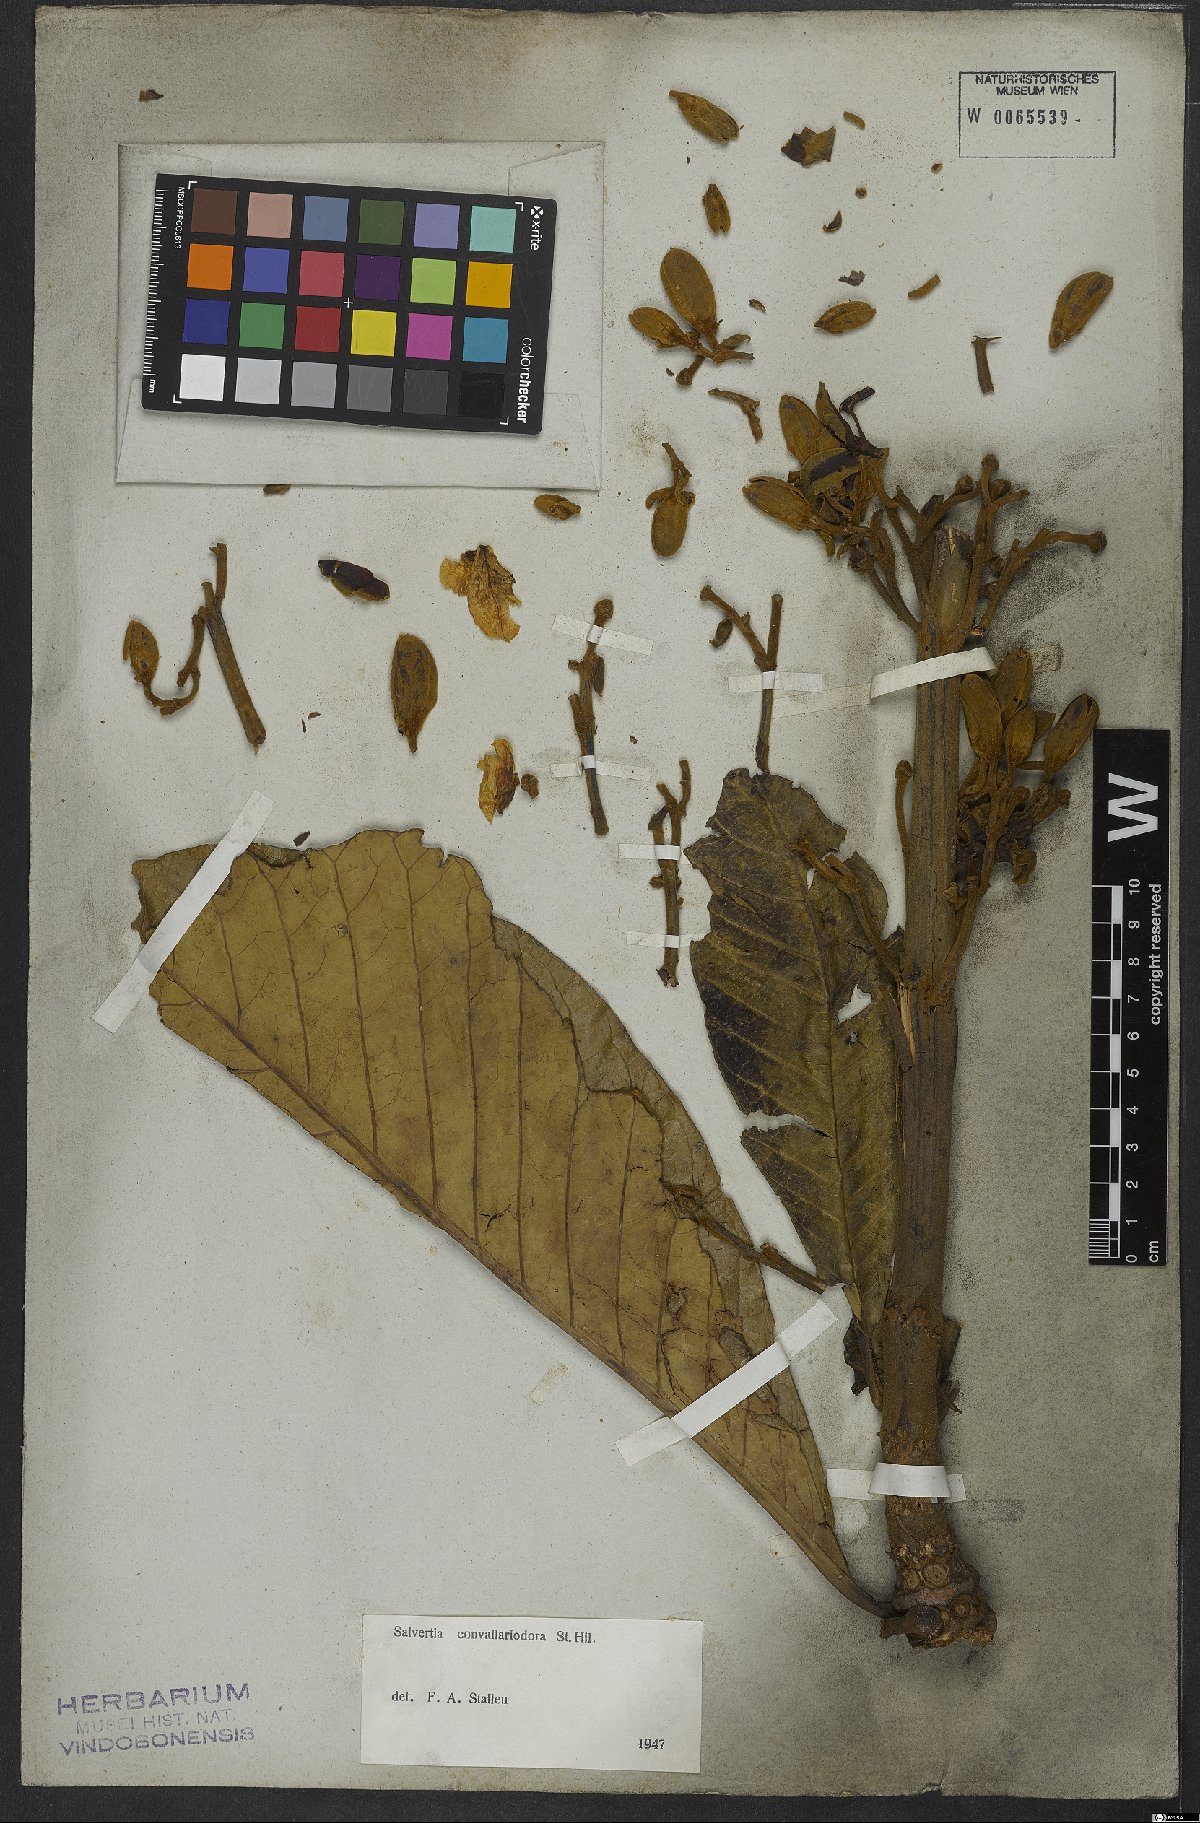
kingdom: Plantae
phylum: Tracheophyta
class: Magnoliopsida
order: Myrtales
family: Vochysiaceae
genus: Salvertia
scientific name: Salvertia convallariodora
